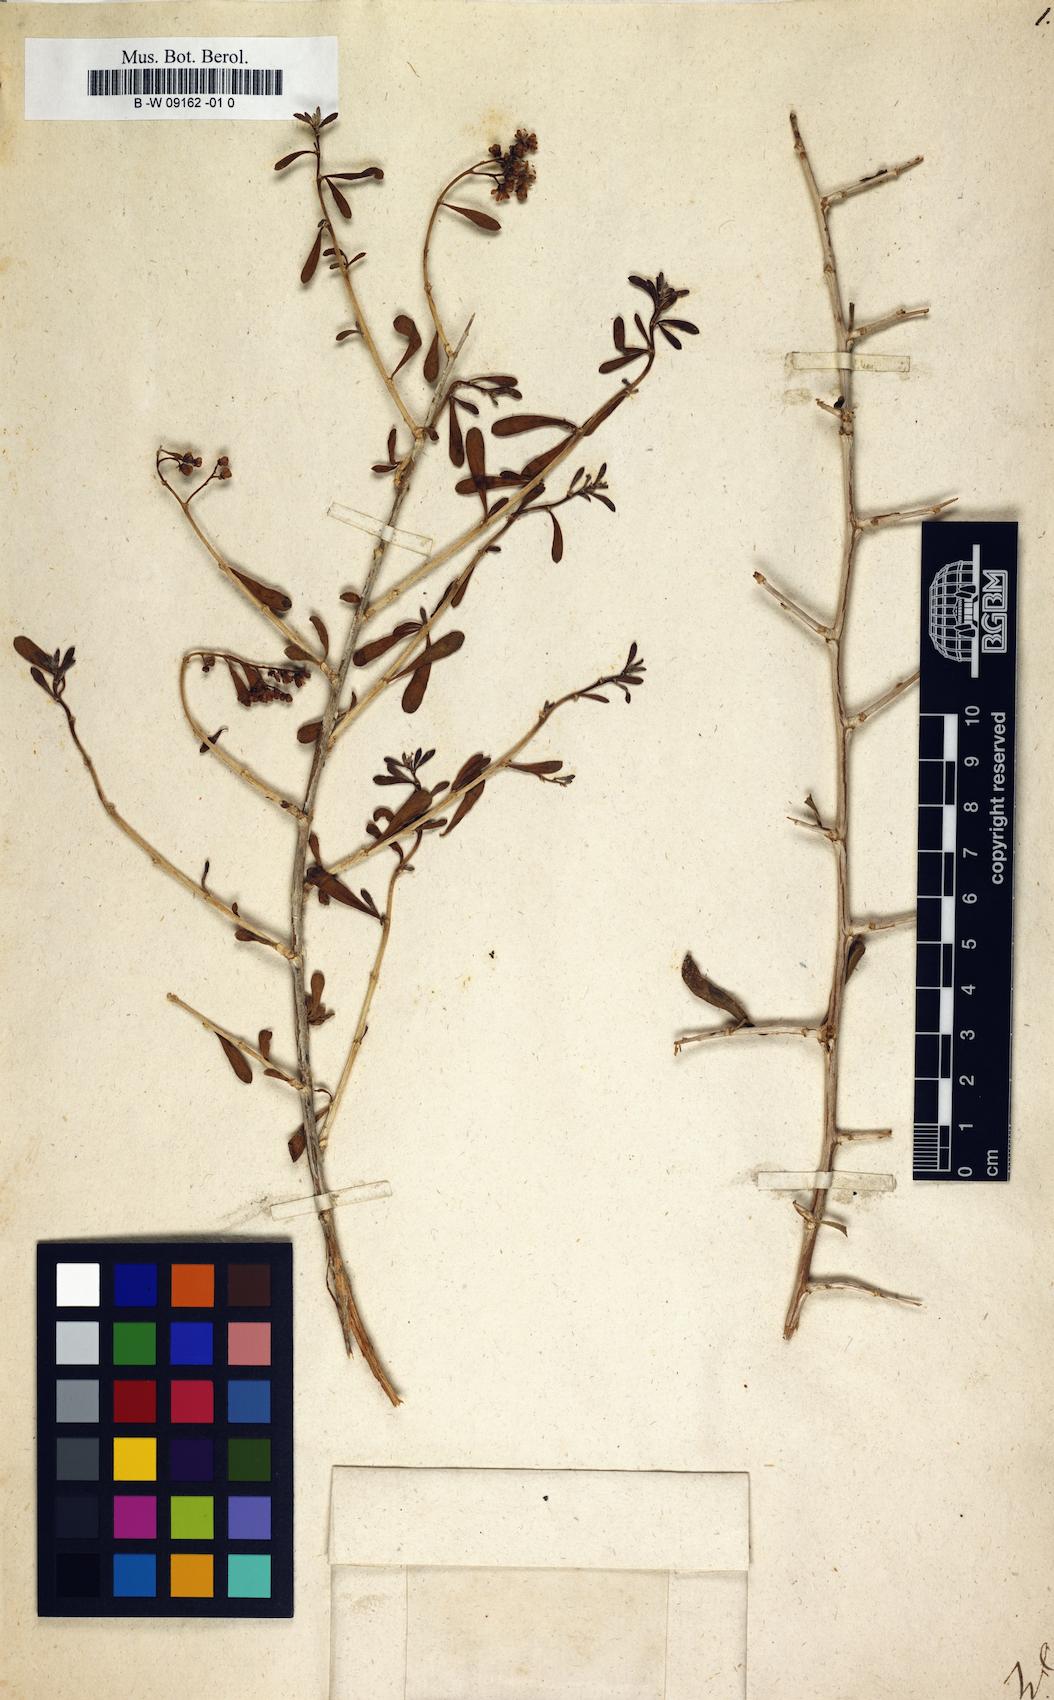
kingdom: Plantae
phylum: Tracheophyta
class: Magnoliopsida
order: Sapindales
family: Nitrariaceae
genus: Nitraria
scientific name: Nitraria
